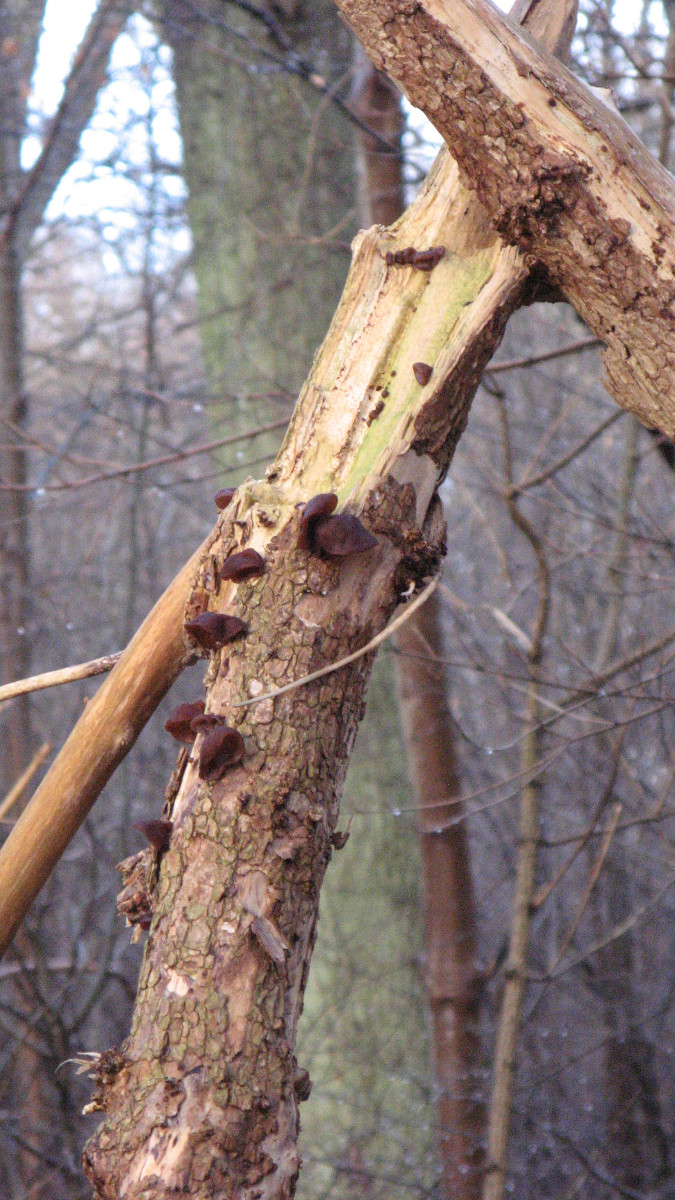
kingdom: Fungi
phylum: Basidiomycota
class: Agaricomycetes
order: Auriculariales
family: Auriculariaceae
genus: Auricularia
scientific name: Auricularia auricula-judae
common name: almindelig judasøre
